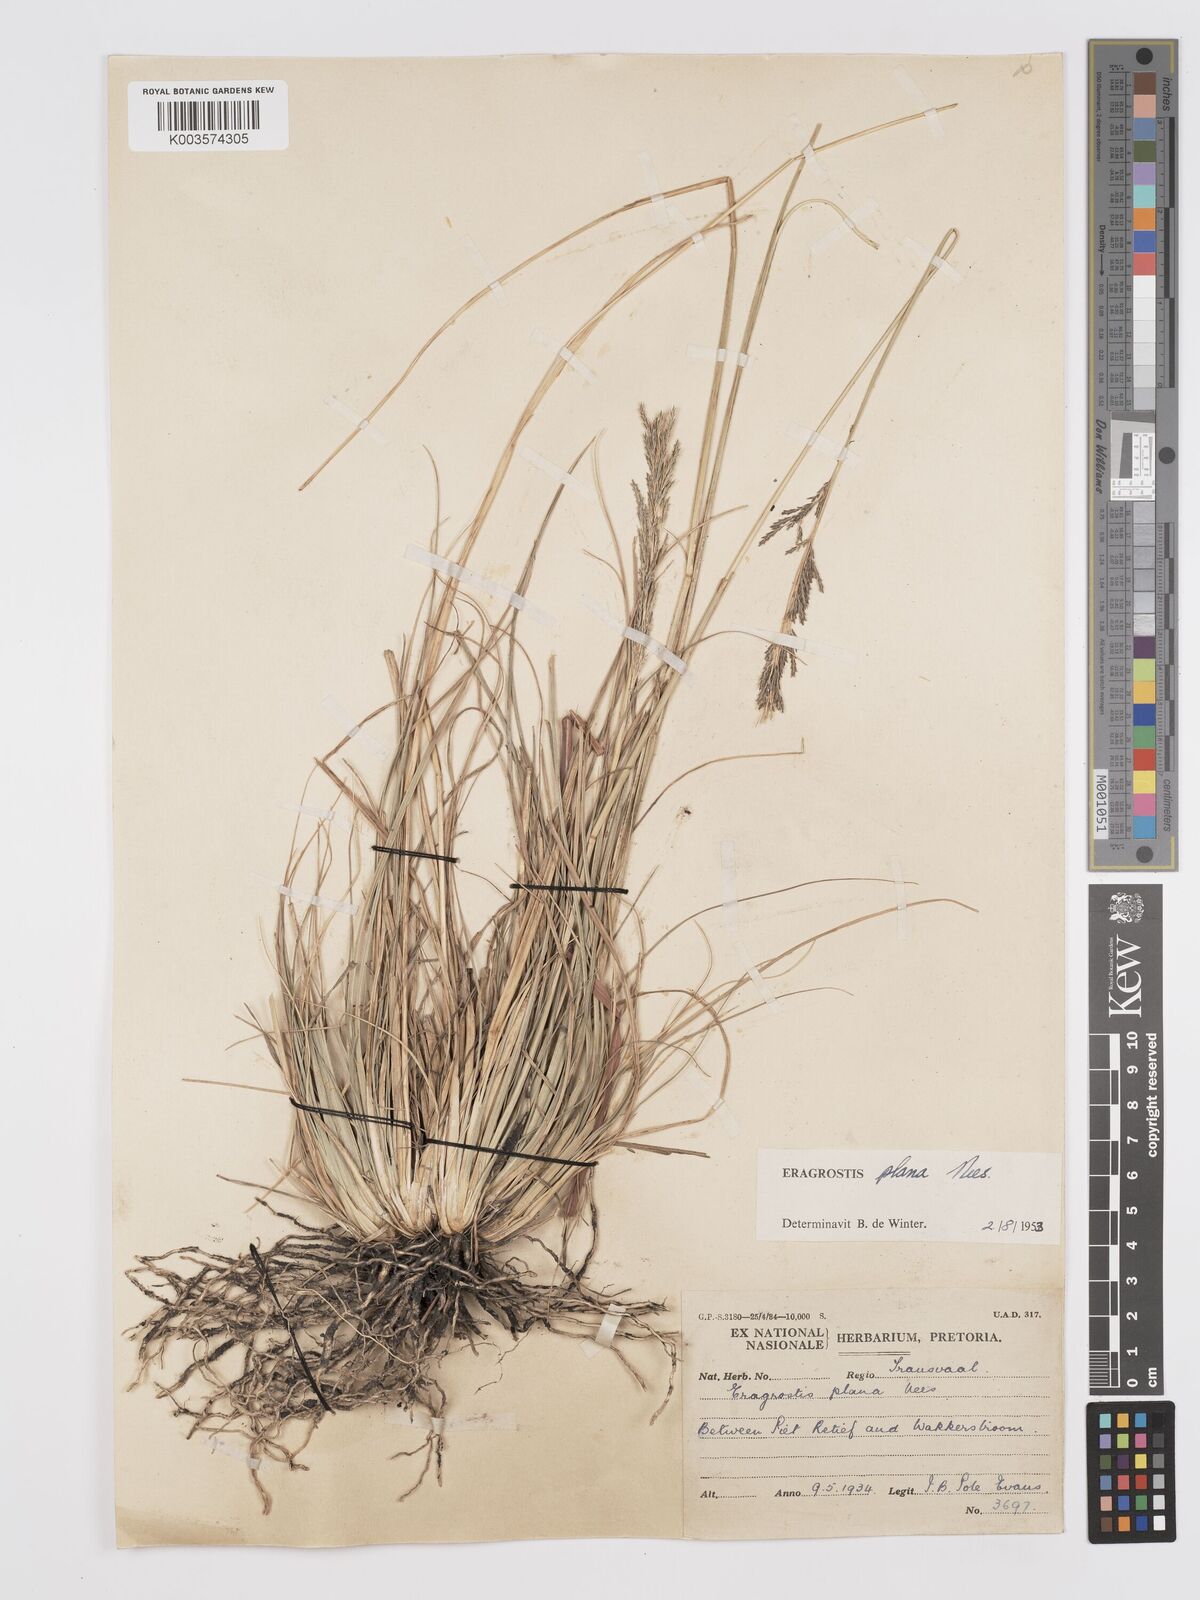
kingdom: Plantae
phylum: Tracheophyta
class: Liliopsida
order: Poales
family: Poaceae
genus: Eragrostis
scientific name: Eragrostis plana
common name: South african lovegrass
